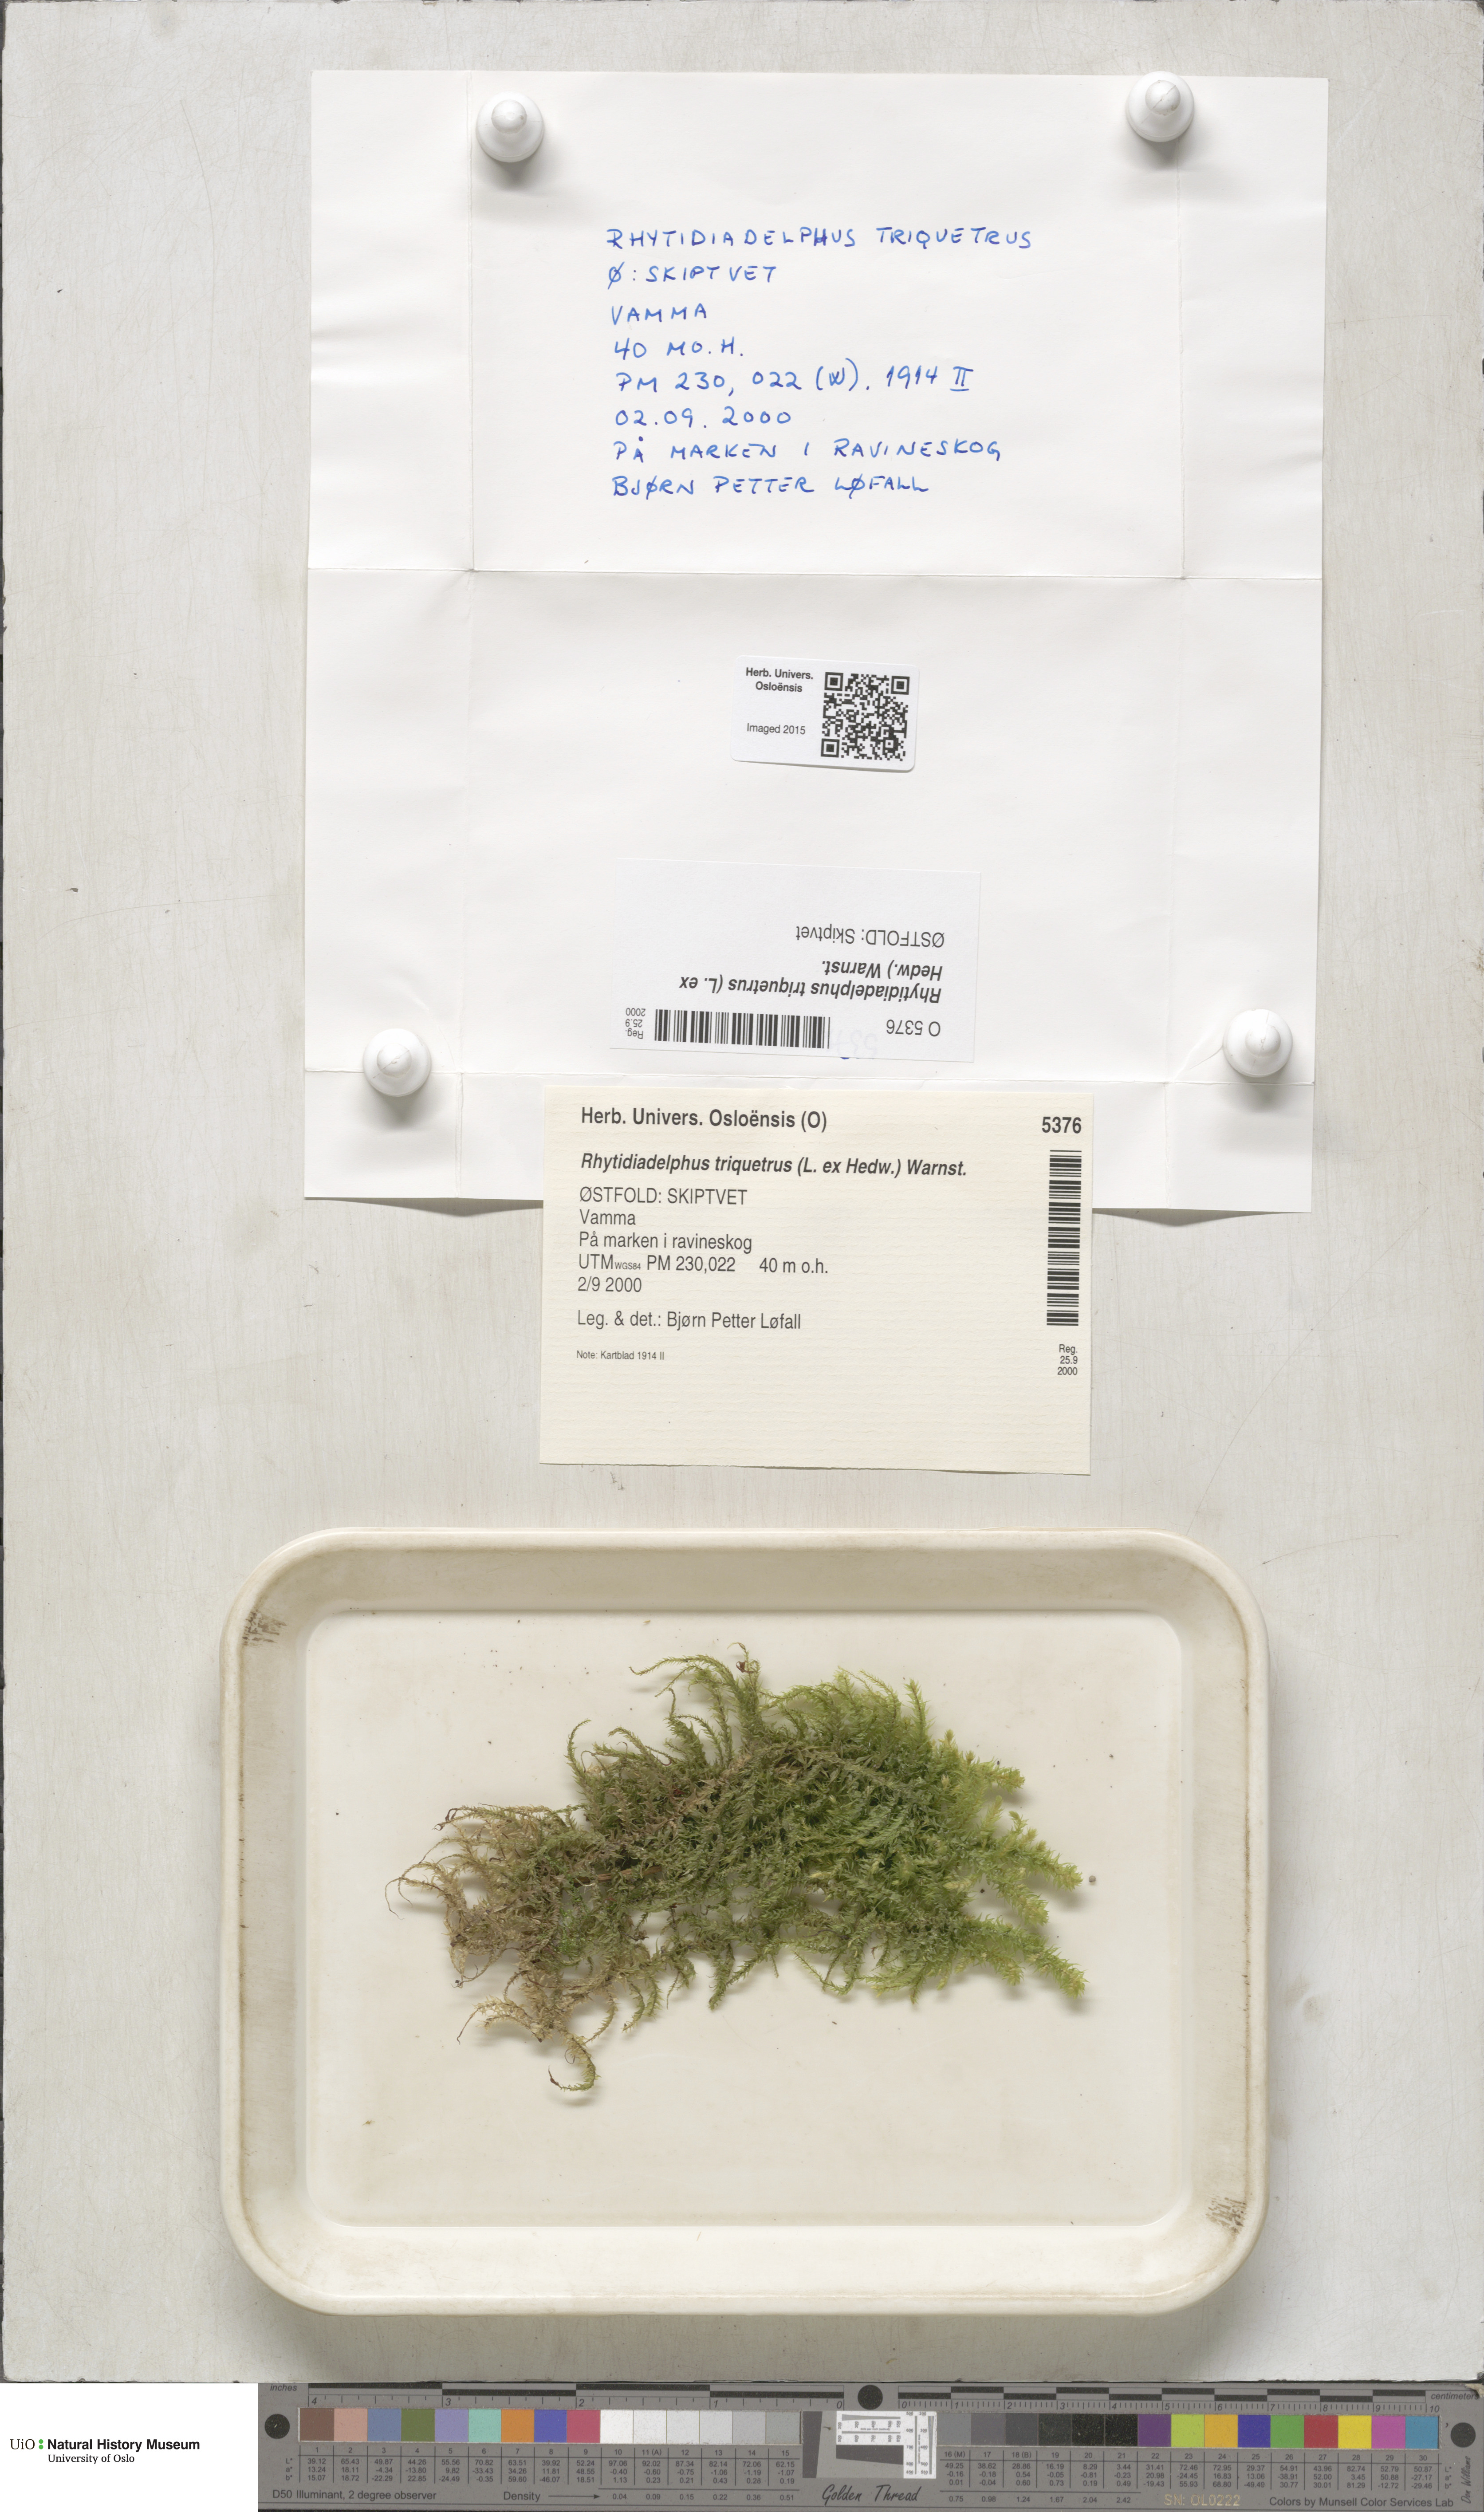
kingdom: Plantae
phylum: Bryophyta
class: Bryopsida
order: Hypnales
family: Hylocomiaceae
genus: Hylocomiadelphus
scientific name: Hylocomiadelphus triquetrus
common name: Rough goose neck moss
